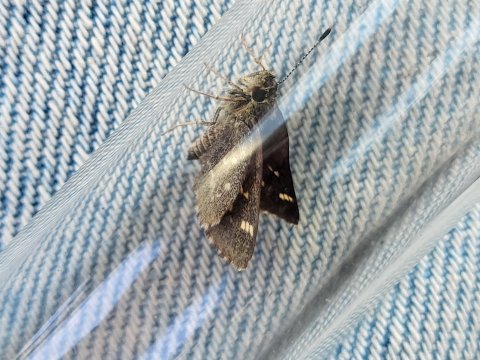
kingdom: Animalia
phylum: Arthropoda
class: Insecta
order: Lepidoptera
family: Hesperiidae
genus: Mastor
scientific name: Mastor hegon
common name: Pepper and Salt Skipper
